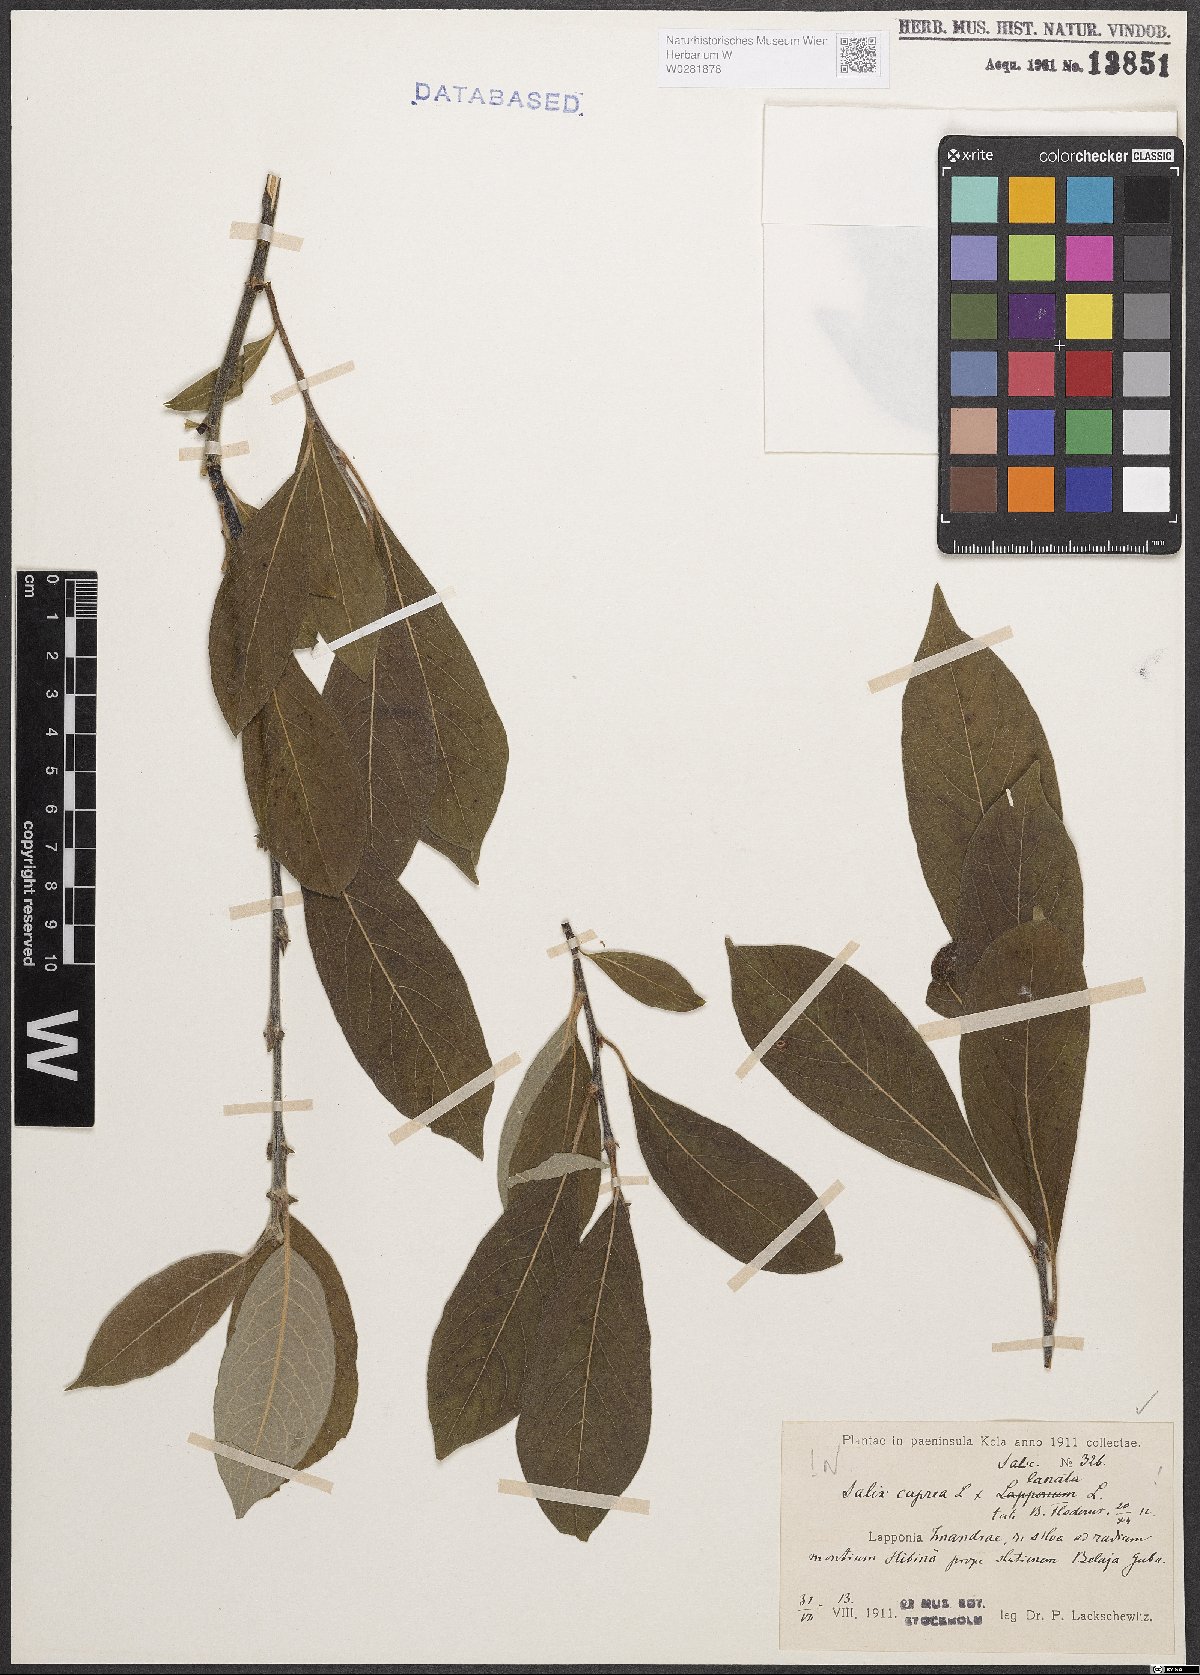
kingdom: Plantae
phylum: Tracheophyta
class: Magnoliopsida
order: Malpighiales
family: Salicaceae
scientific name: Salicaceae
